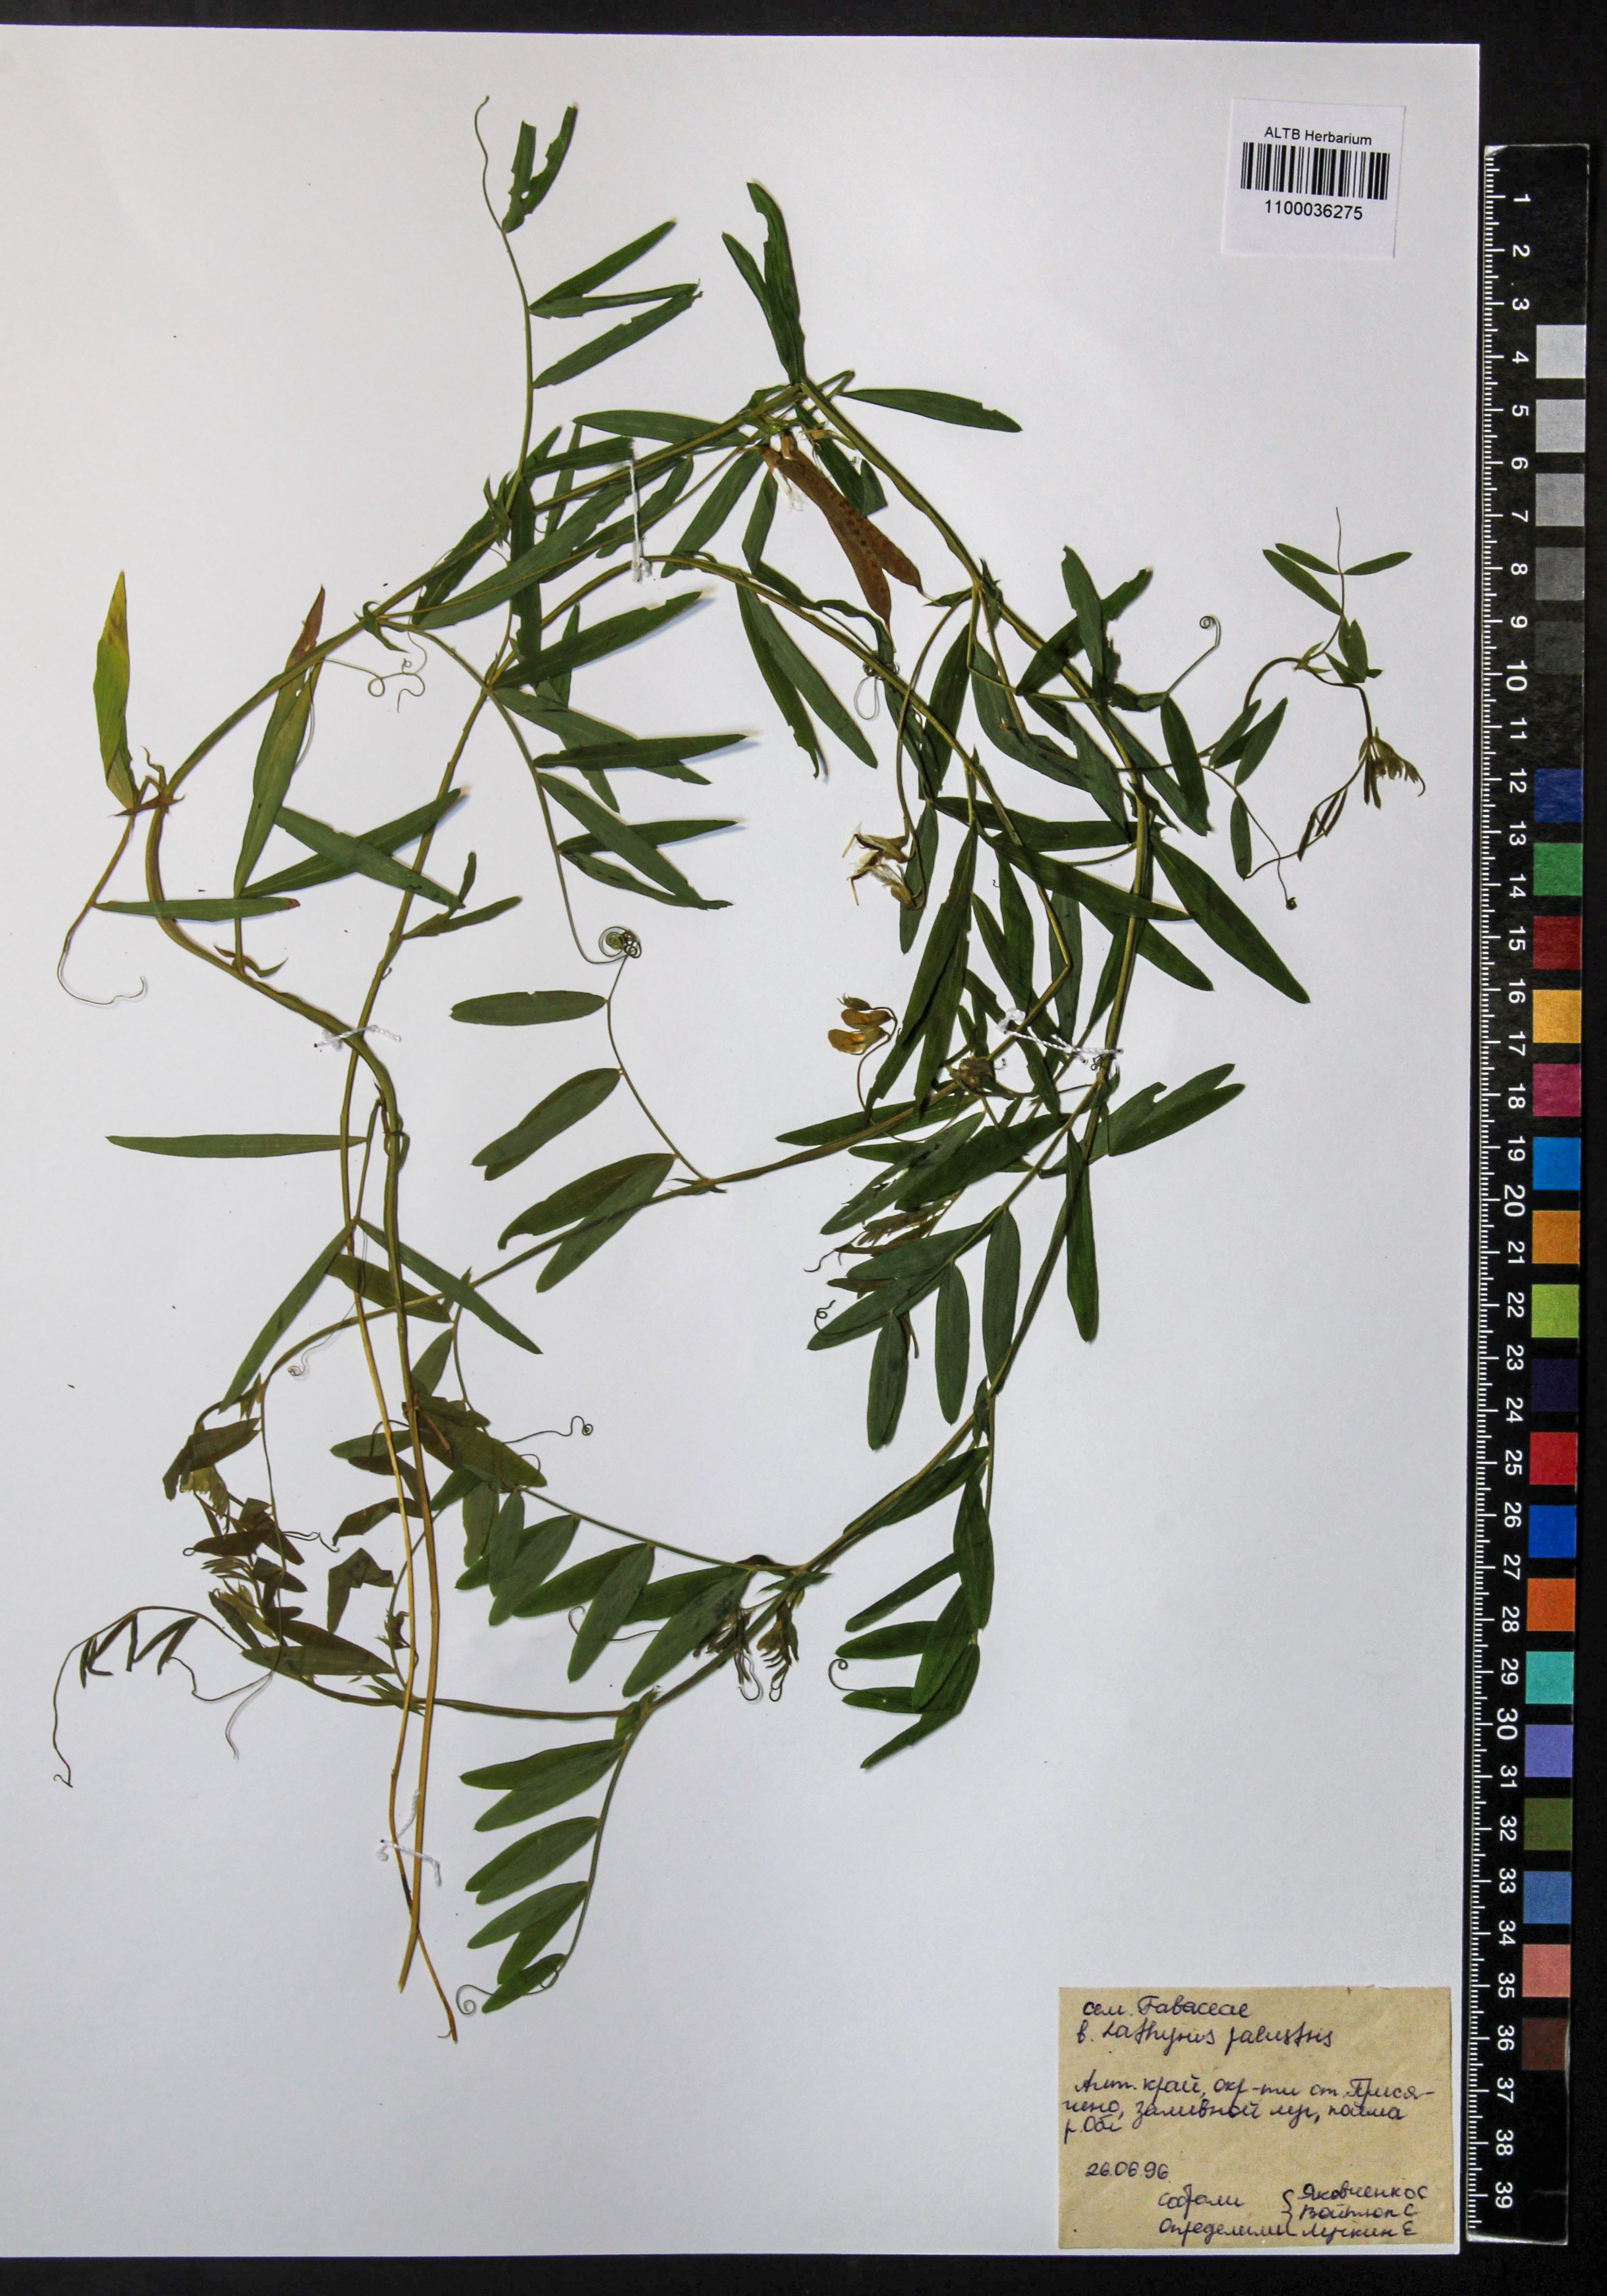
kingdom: Plantae
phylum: Tracheophyta
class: Magnoliopsida
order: Fabales
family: Fabaceae
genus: Lathyrus
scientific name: Lathyrus palustris
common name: Marsh pea
